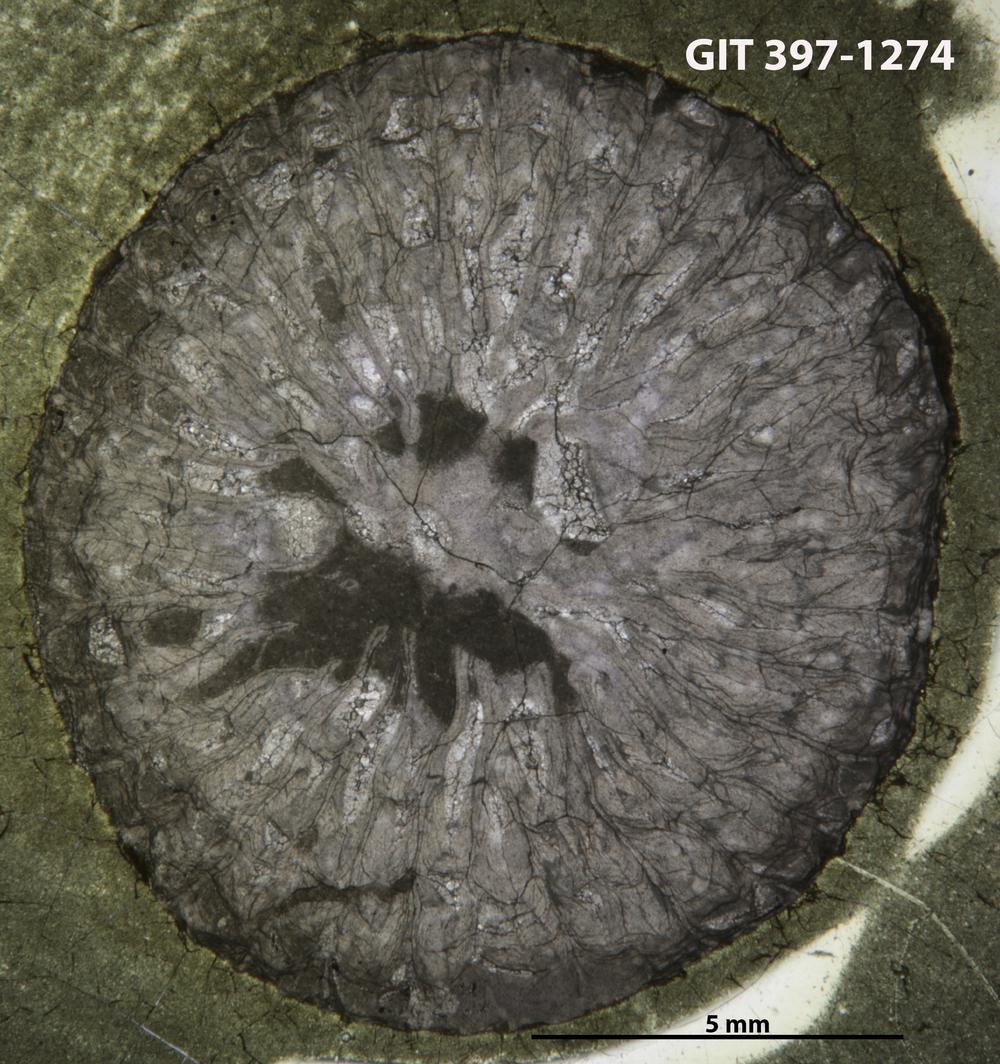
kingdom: Animalia
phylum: Cnidaria
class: Anthozoa
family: Lykophyllidae
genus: Phaulactis
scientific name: Phaulactis
